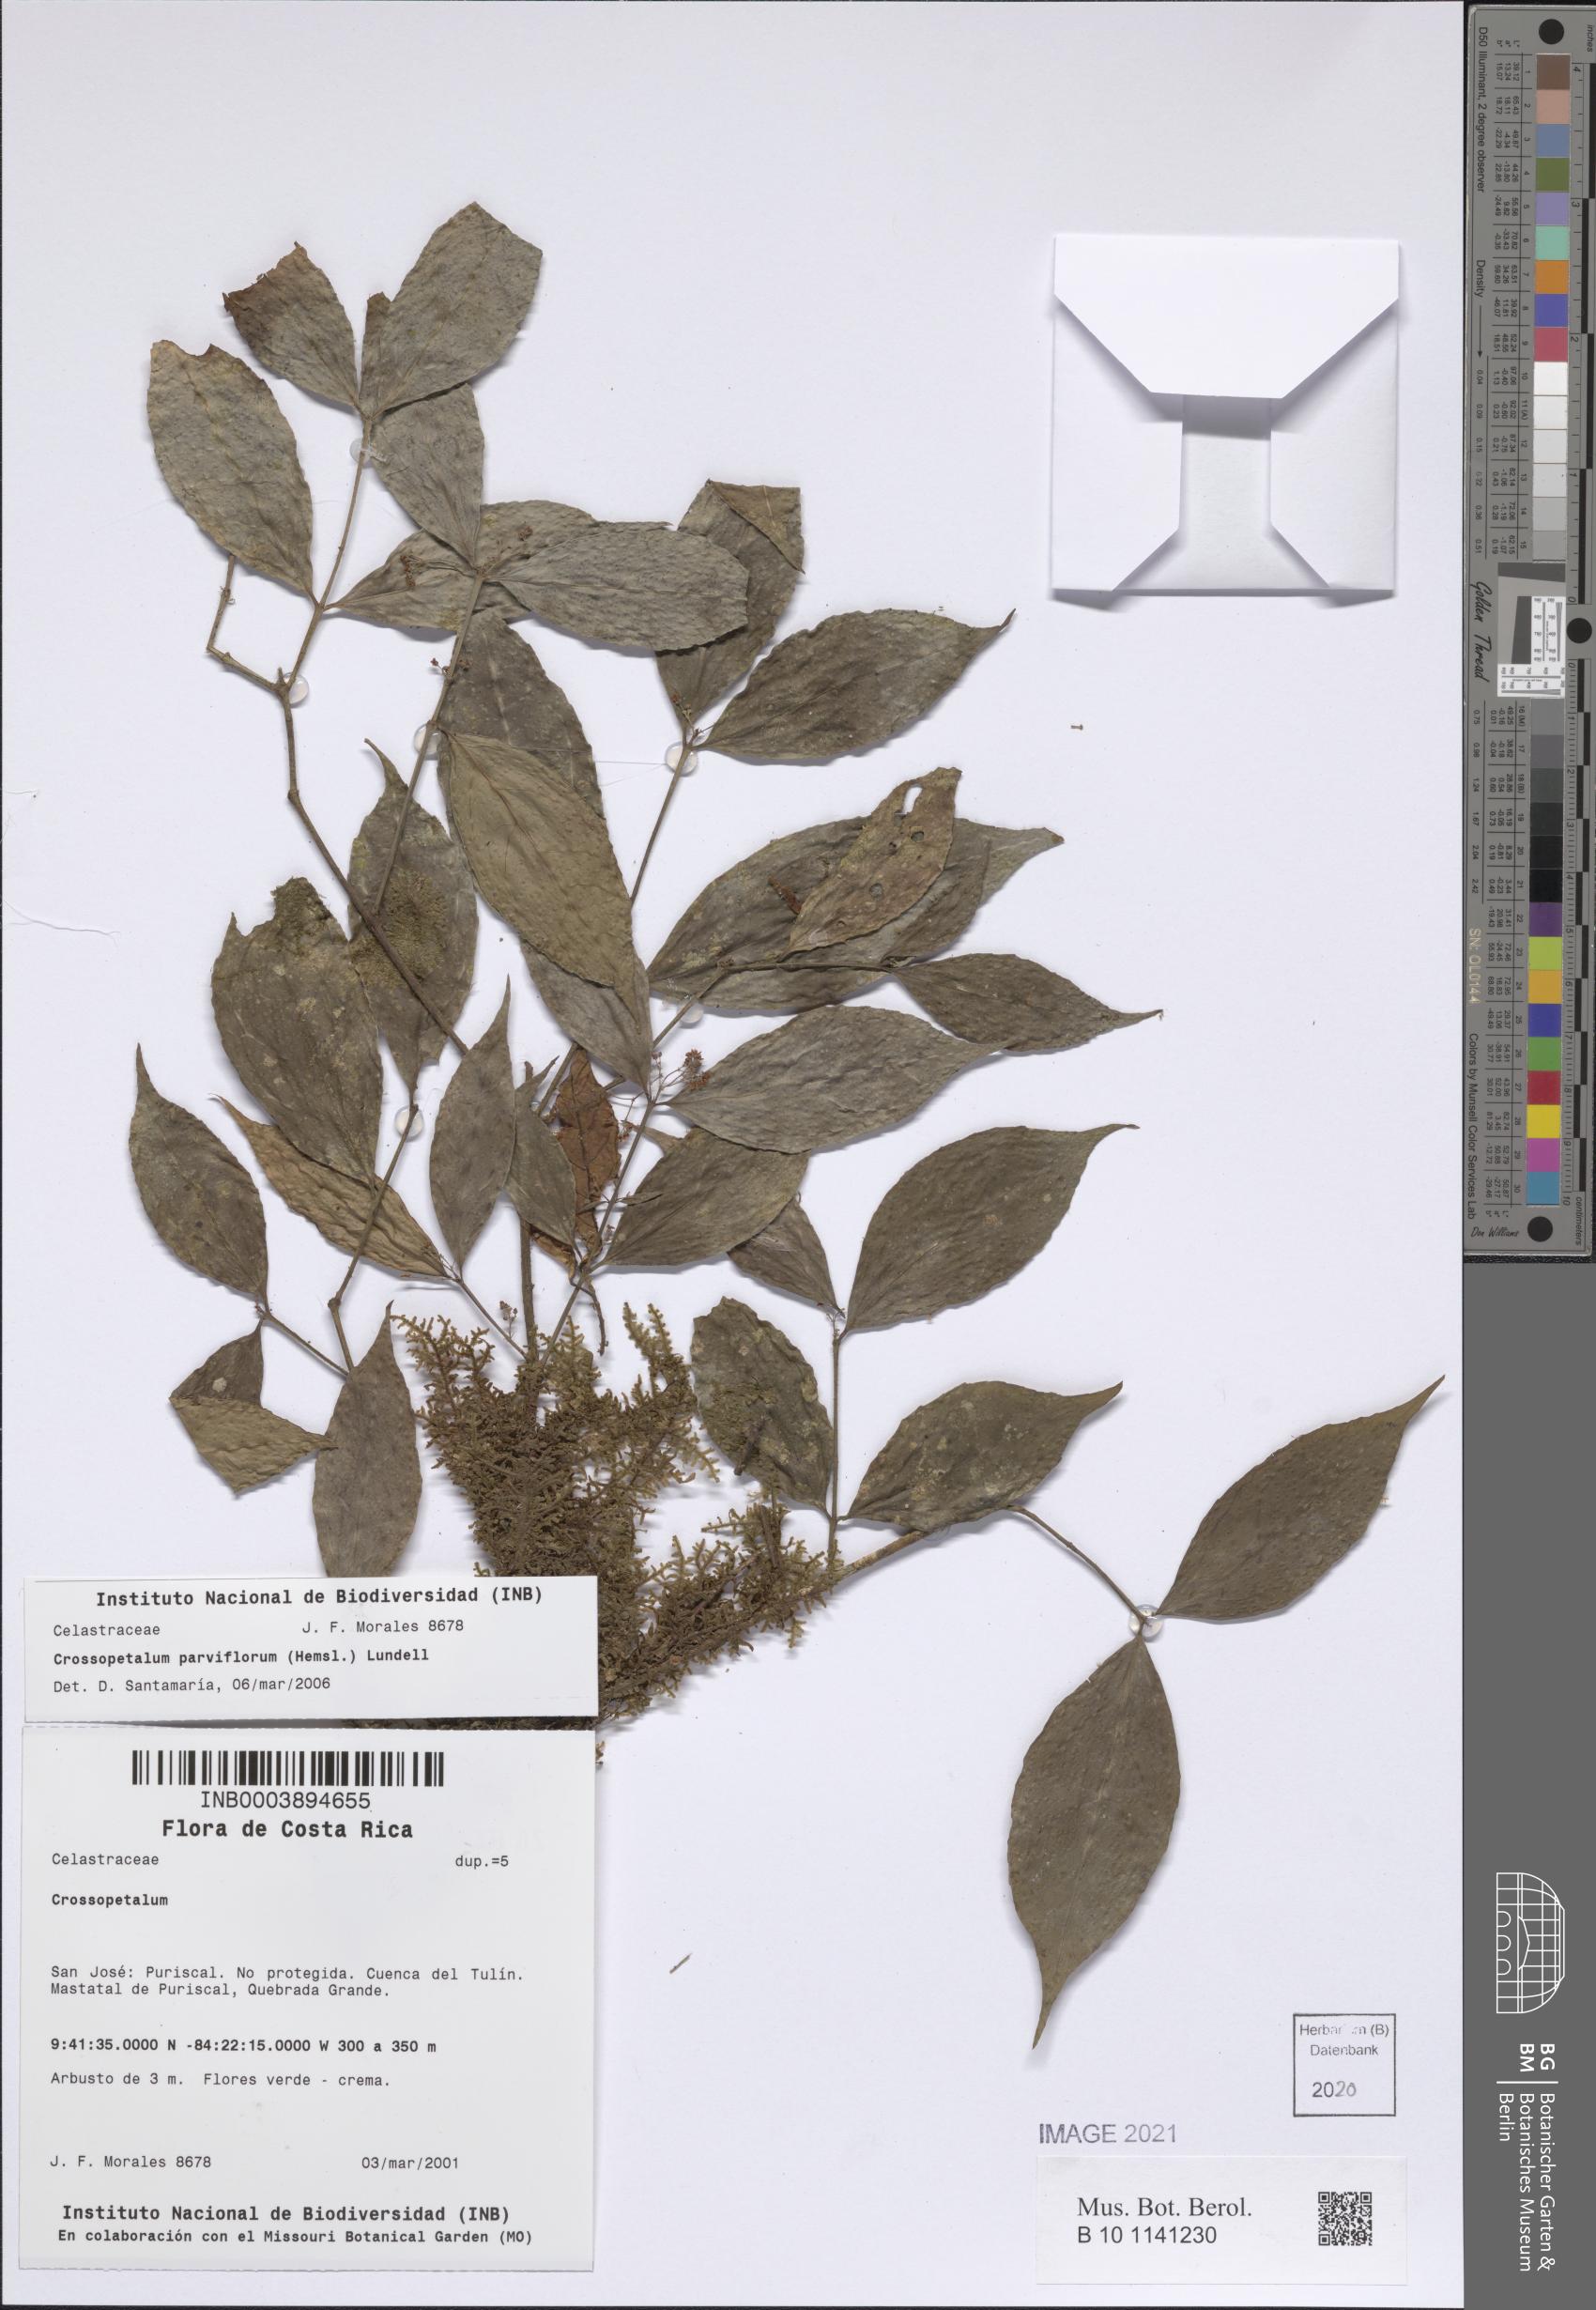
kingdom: Plantae
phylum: Tracheophyta
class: Magnoliopsida
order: Celastrales
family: Celastraceae
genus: Crossopetalum
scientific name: Crossopetalum parviflorum
